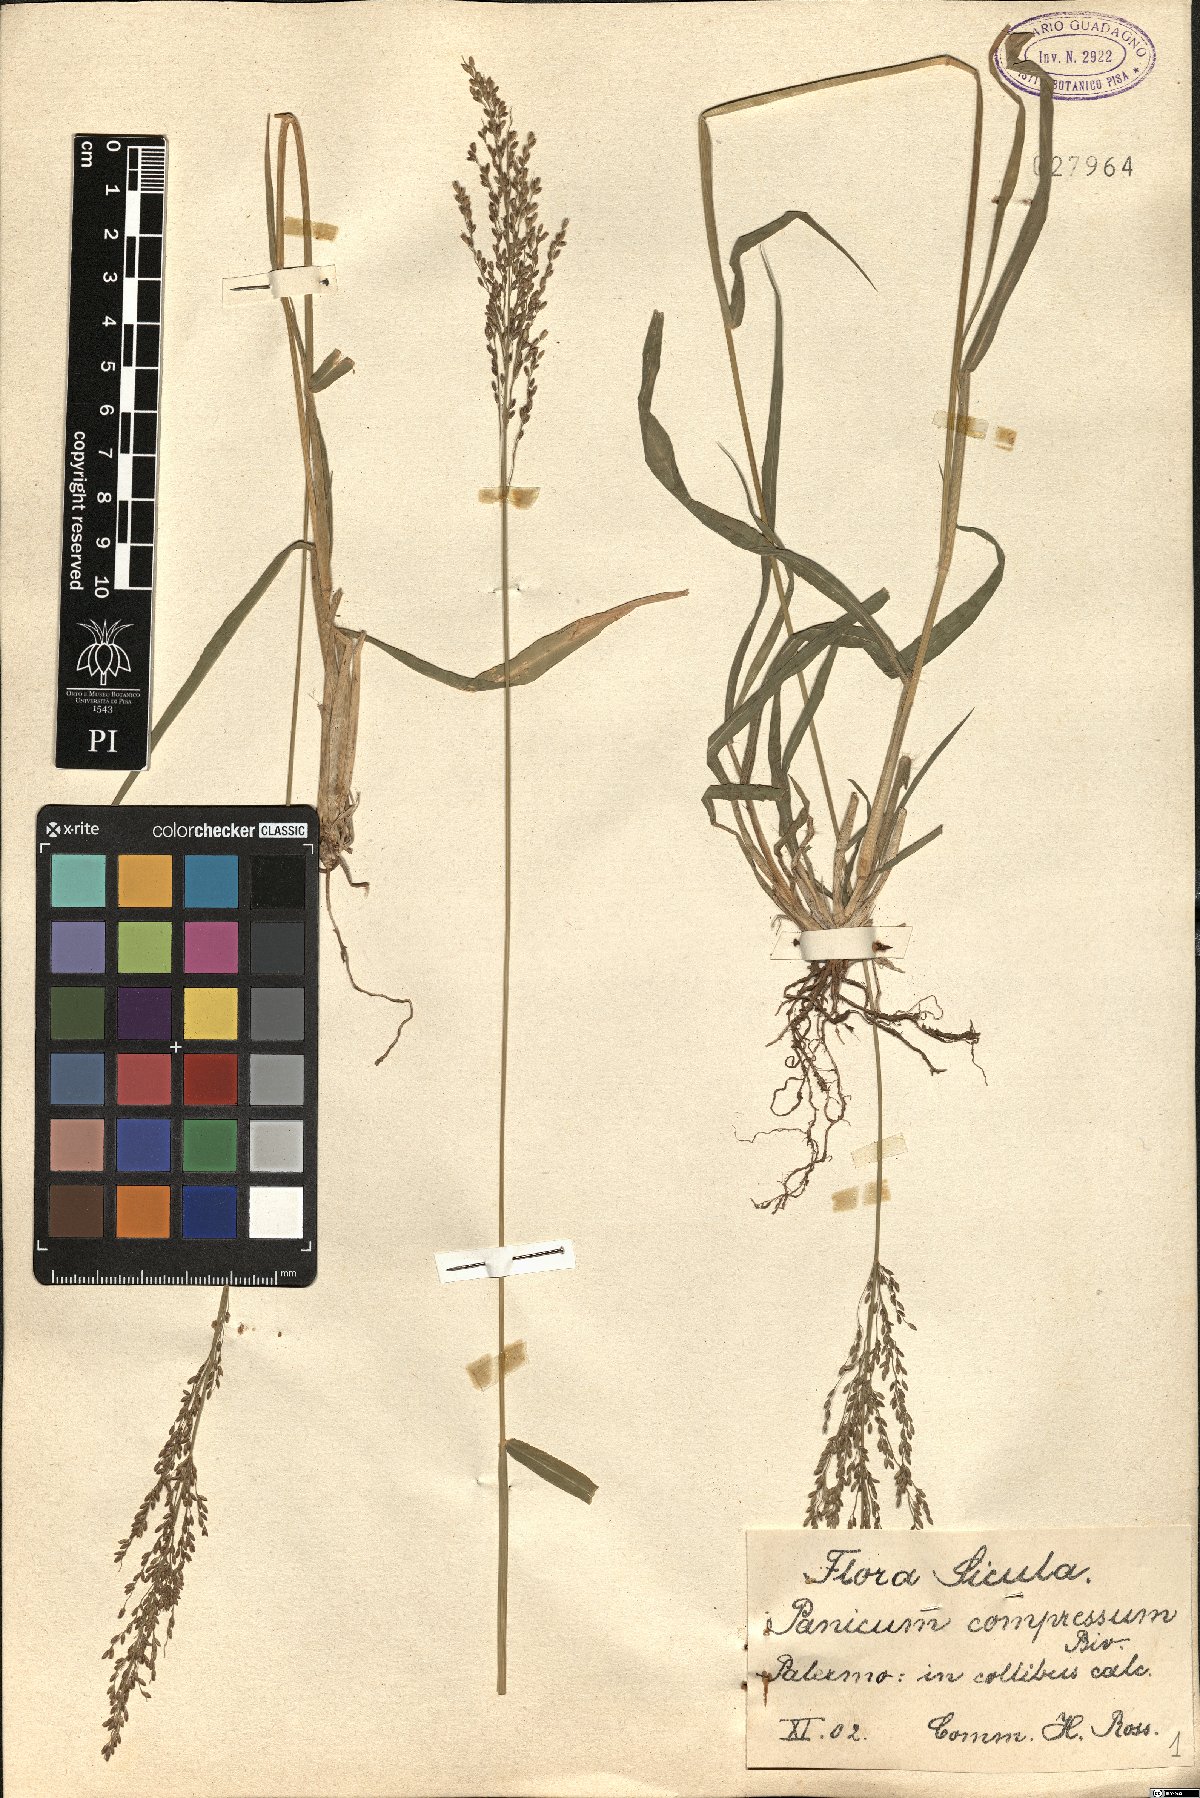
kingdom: Plantae
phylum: Tracheophyta
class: Liliopsida
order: Poales
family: Poaceae
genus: Megathyrsus
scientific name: Megathyrsus maximus
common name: Guineagrass
